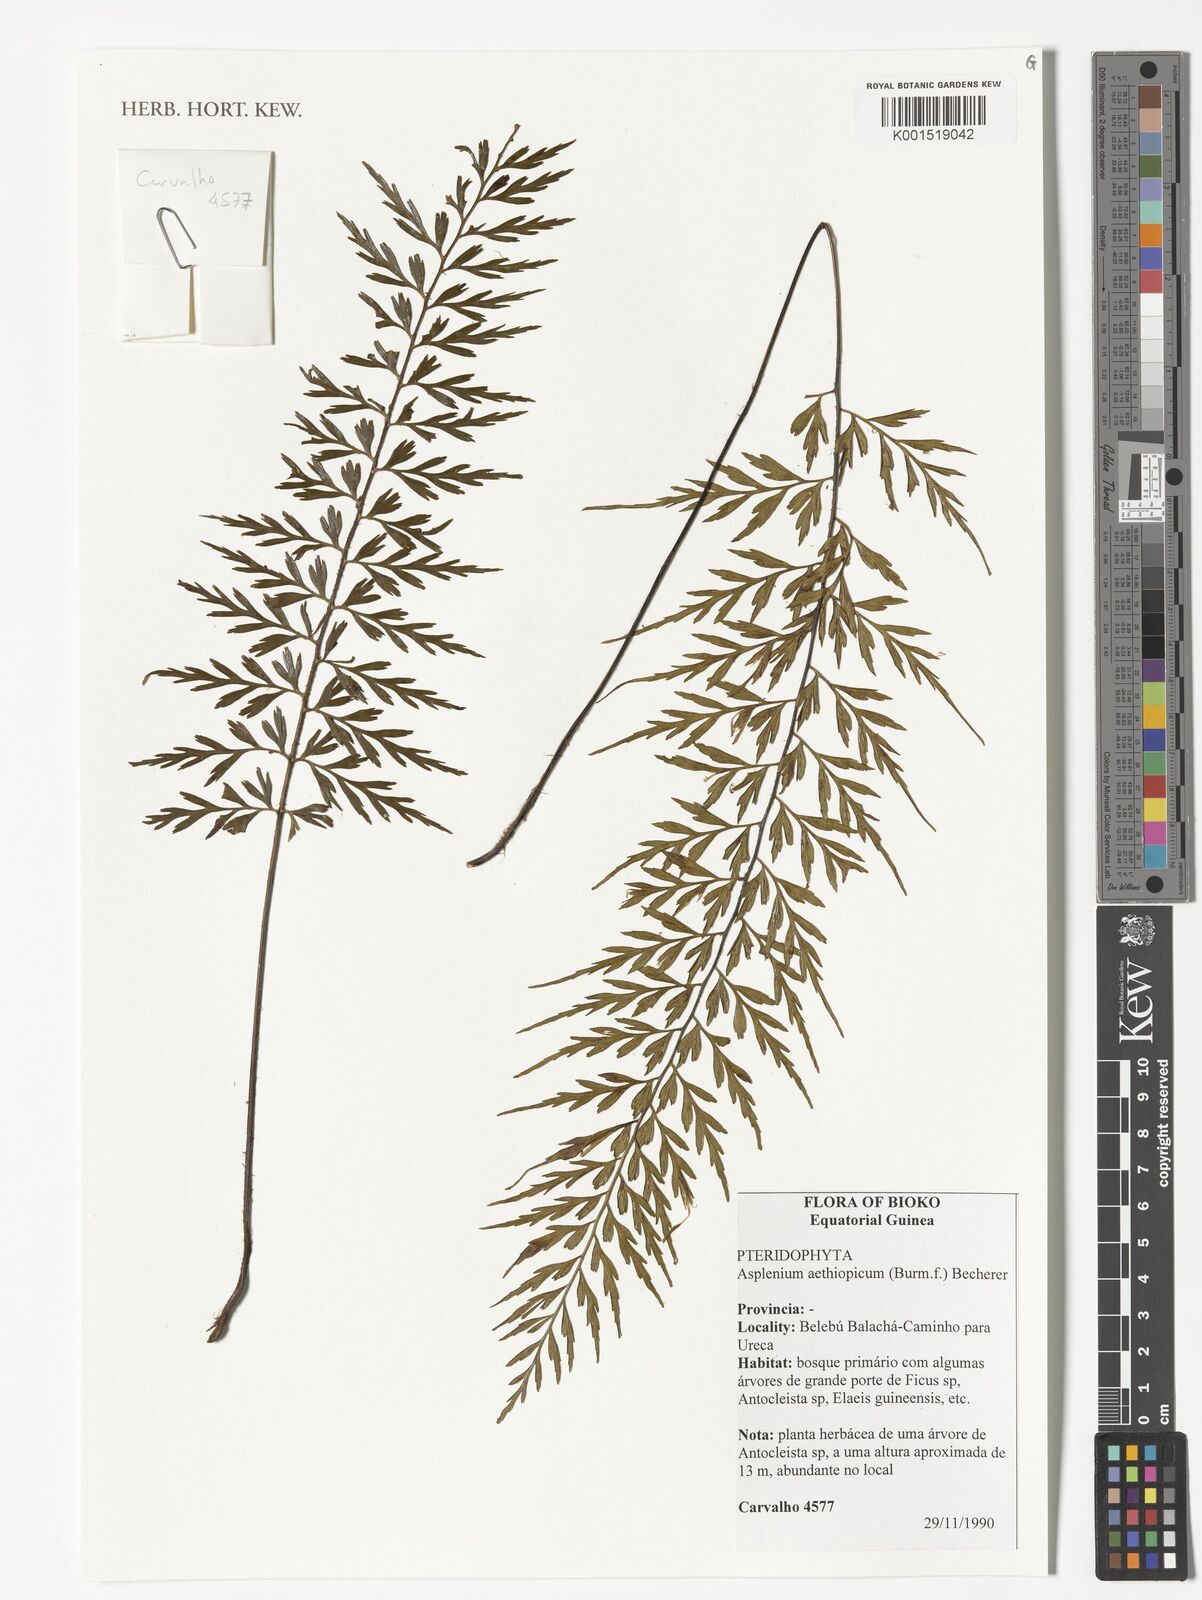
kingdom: Plantae
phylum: Tracheophyta
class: Polypodiopsida
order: Polypodiales
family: Aspleniaceae
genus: Asplenium
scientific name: Asplenium aethiopicum
